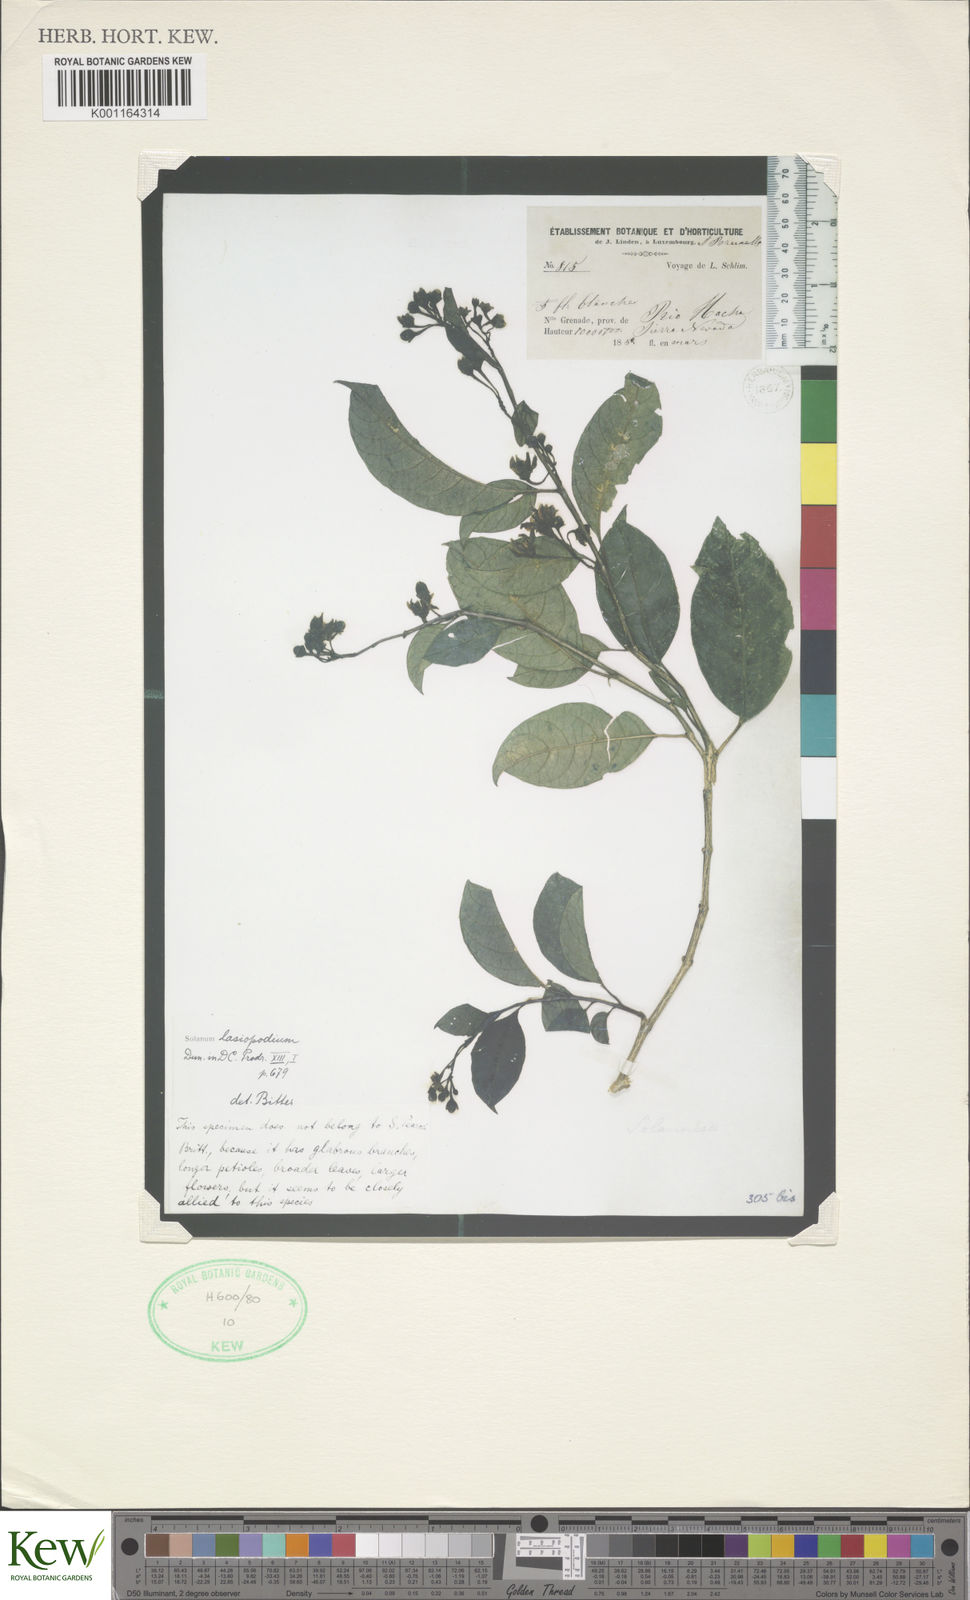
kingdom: Plantae
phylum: Tracheophyta
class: Magnoliopsida
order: Solanales
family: Solanaceae
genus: Solanum
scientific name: Solanum lasiopodium
